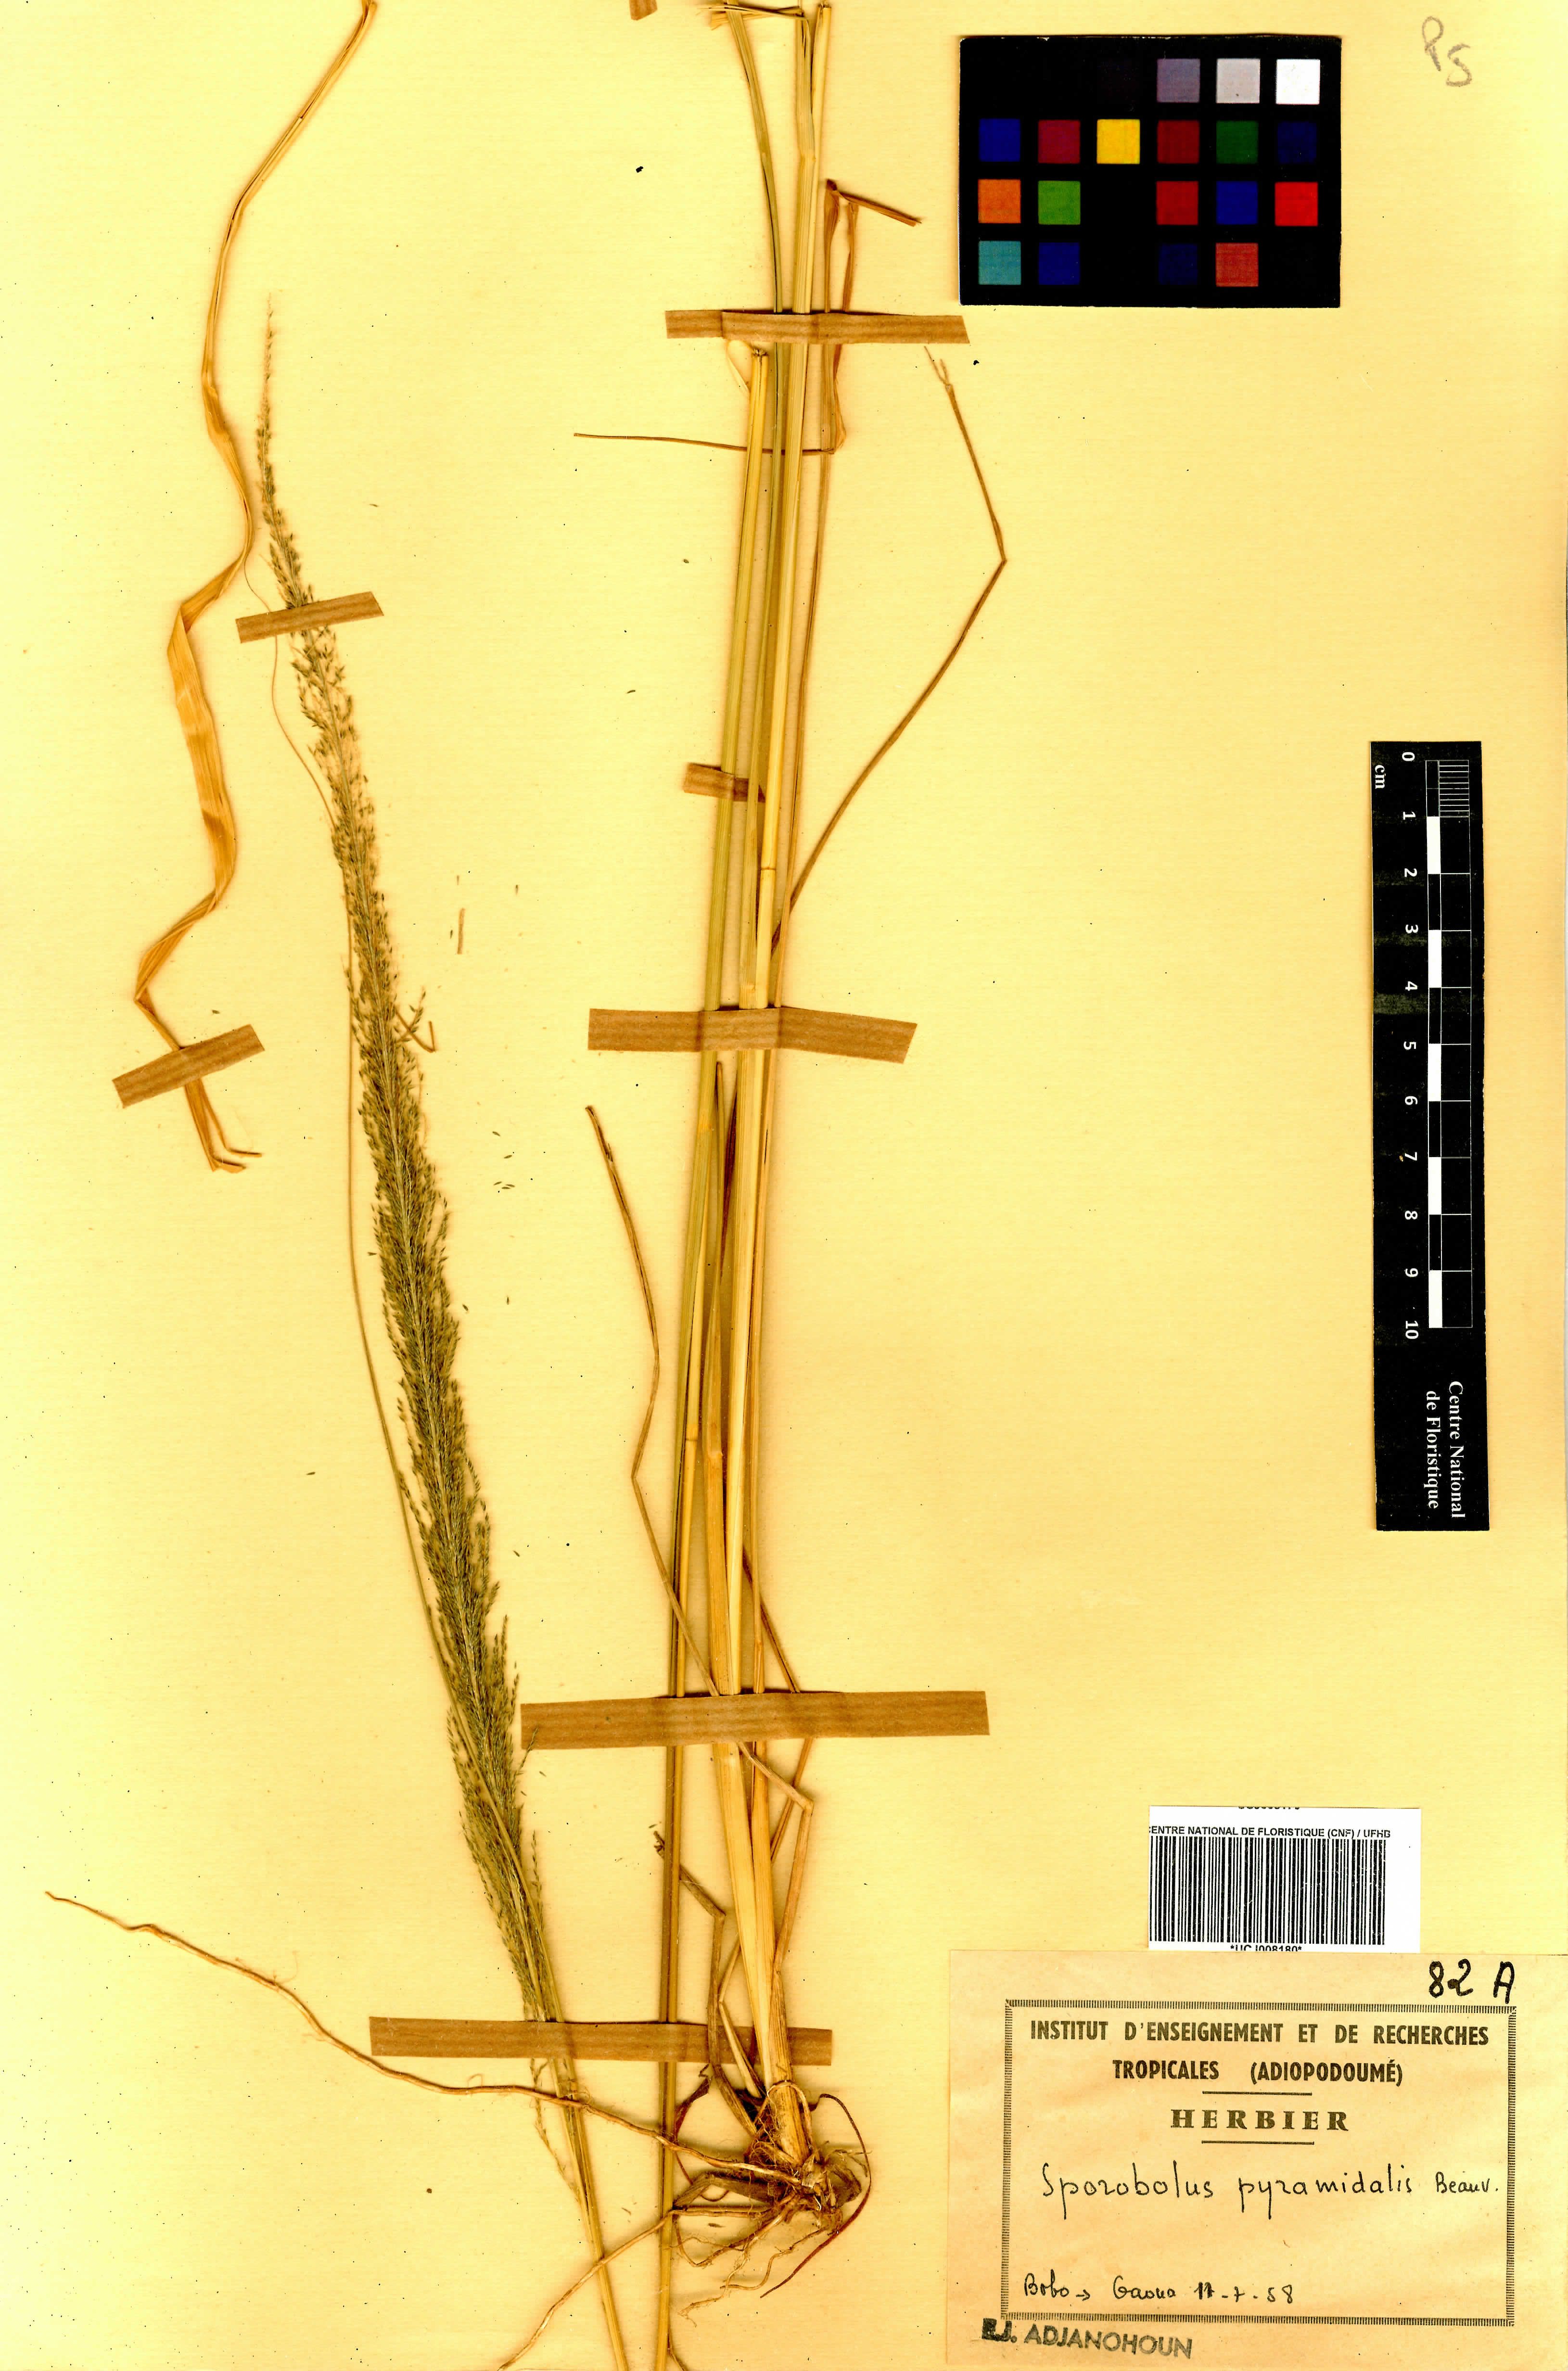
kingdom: Plantae
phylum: Tracheophyta
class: Liliopsida
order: Poales
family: Poaceae
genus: Sporobolus
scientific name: Sporobolus pyramidalis
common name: West indian dropseed
